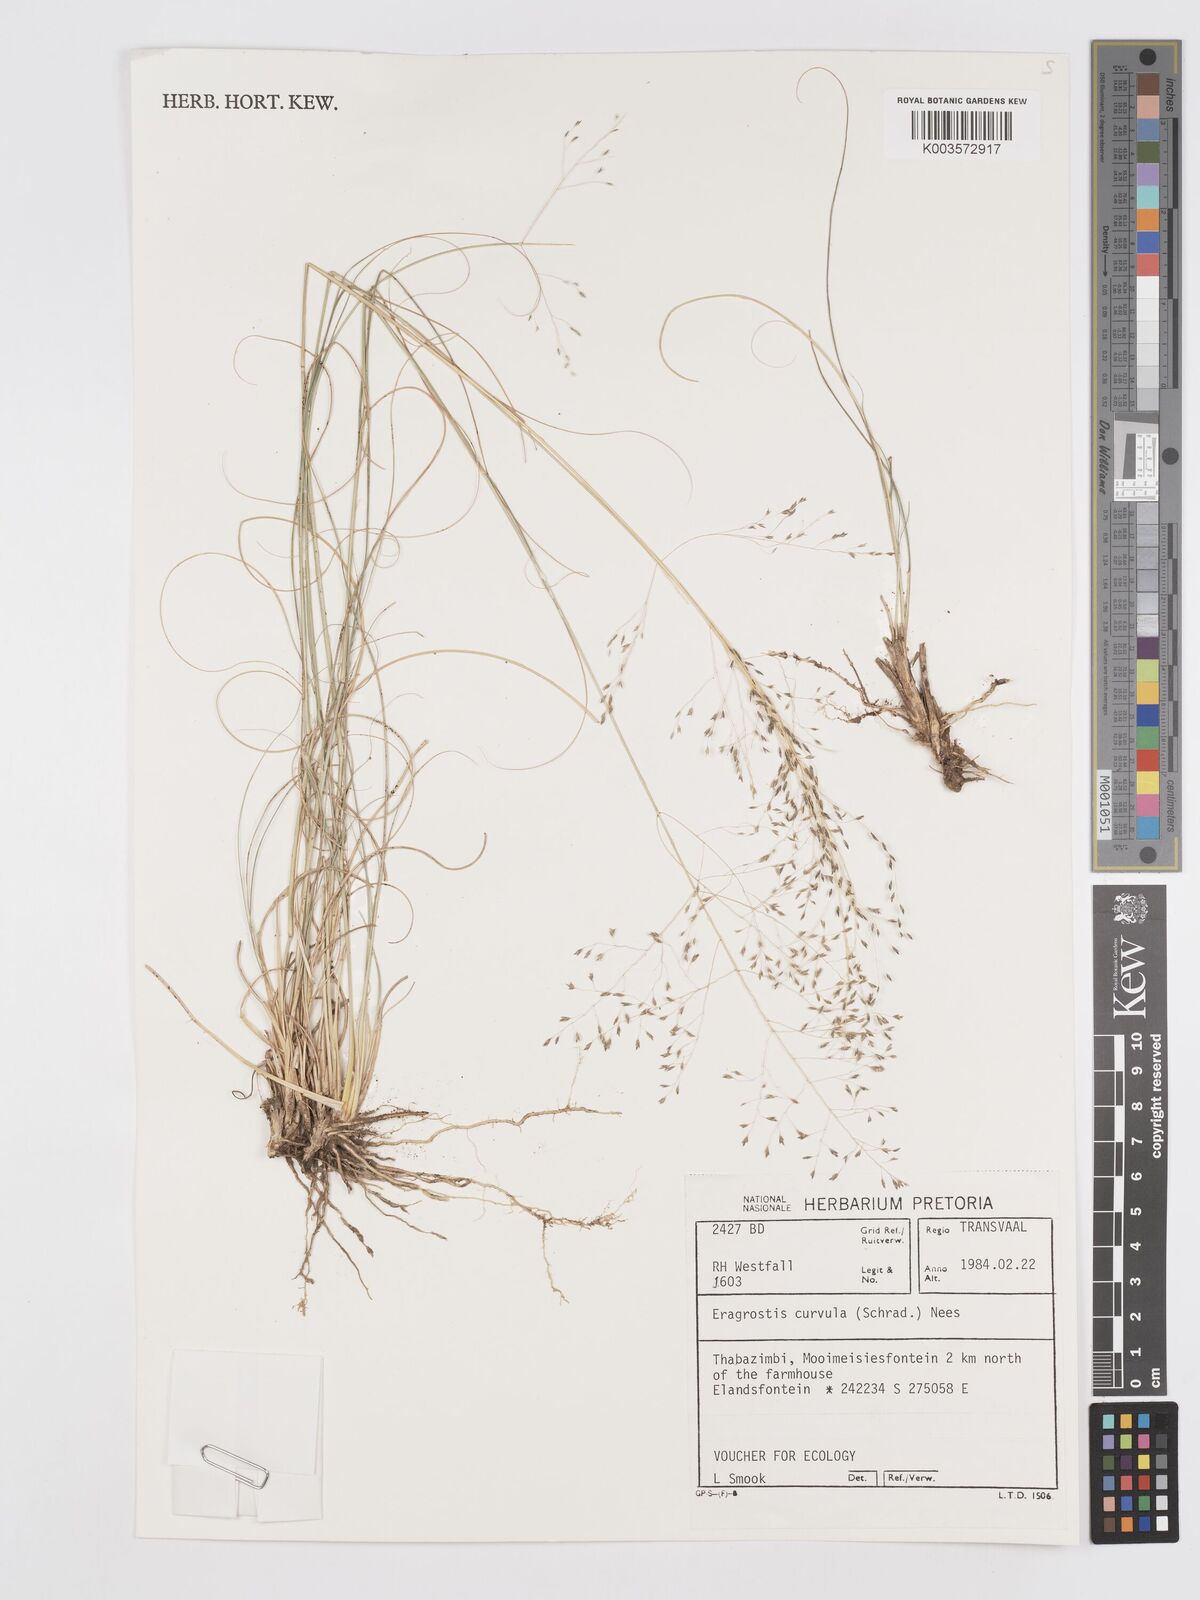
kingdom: Plantae
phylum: Tracheophyta
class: Liliopsida
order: Poales
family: Poaceae
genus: Eragrostis
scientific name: Eragrostis curvula
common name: African love-grass
